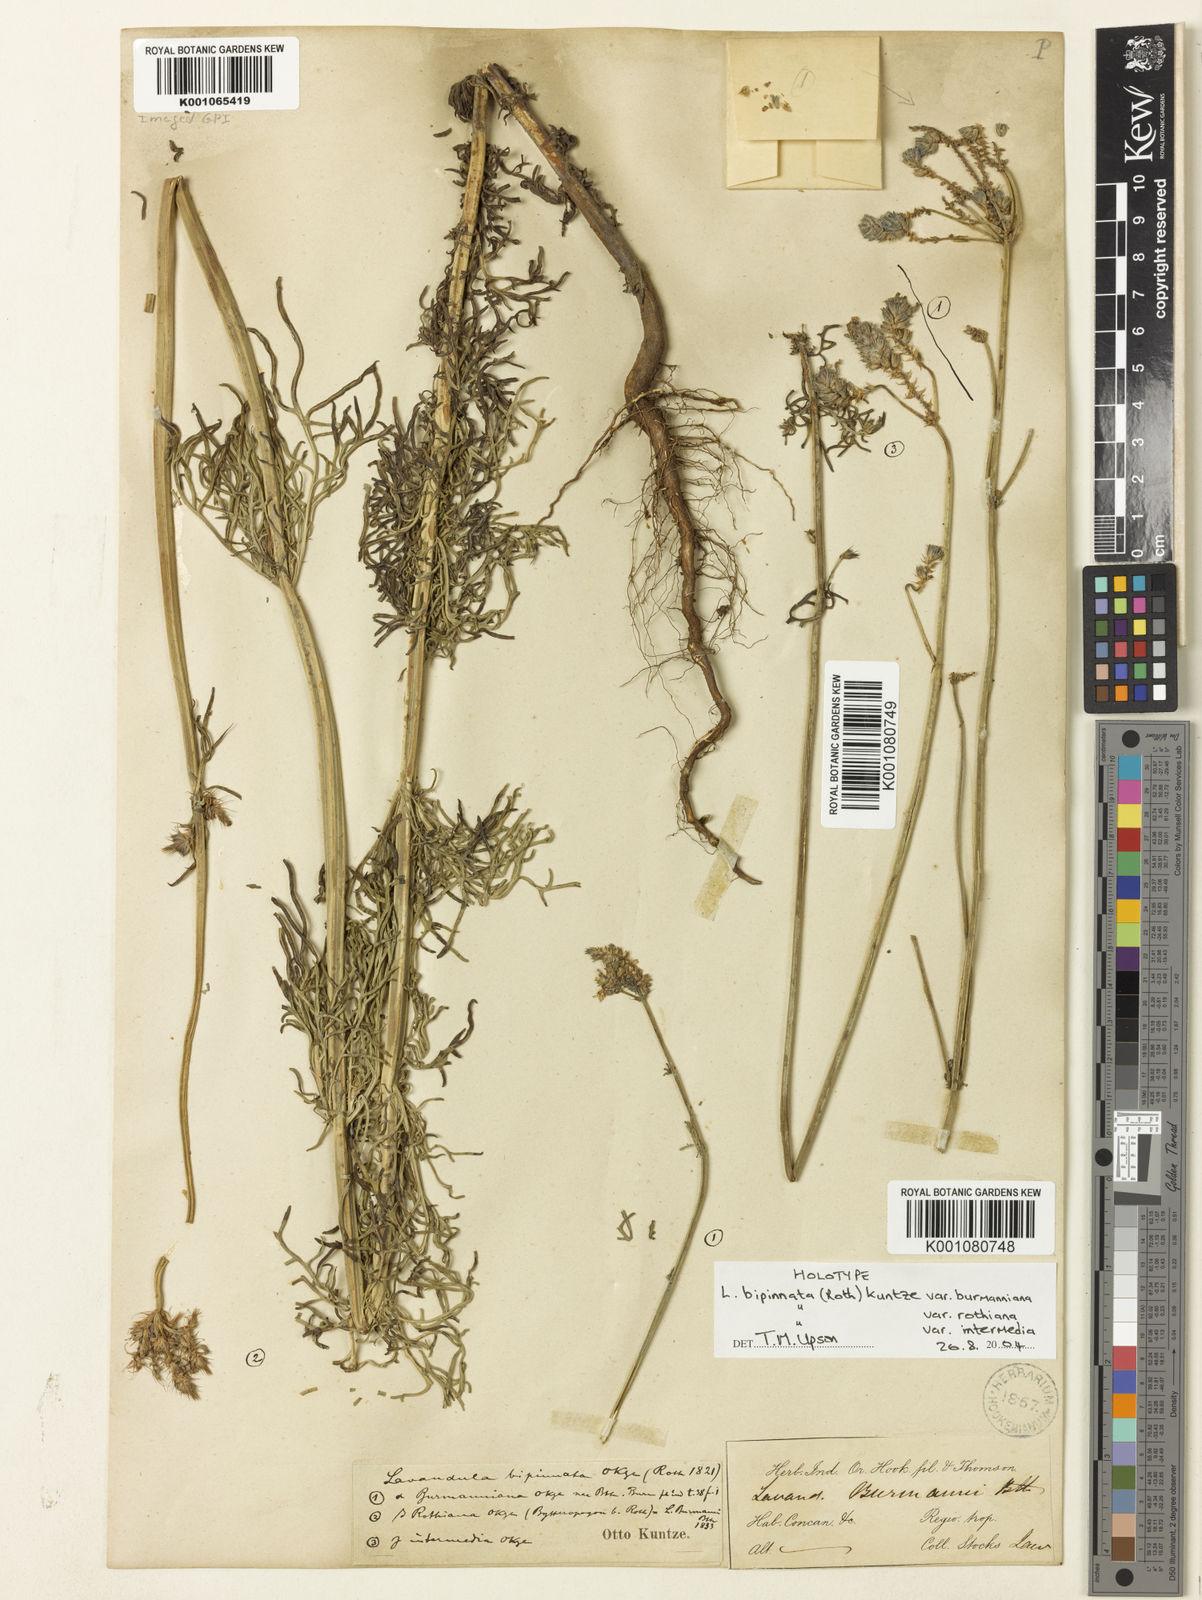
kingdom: Plantae
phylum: Tracheophyta
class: Magnoliopsida
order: Lamiales
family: Lamiaceae
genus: Lavandula
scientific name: Lavandula bipinnata
